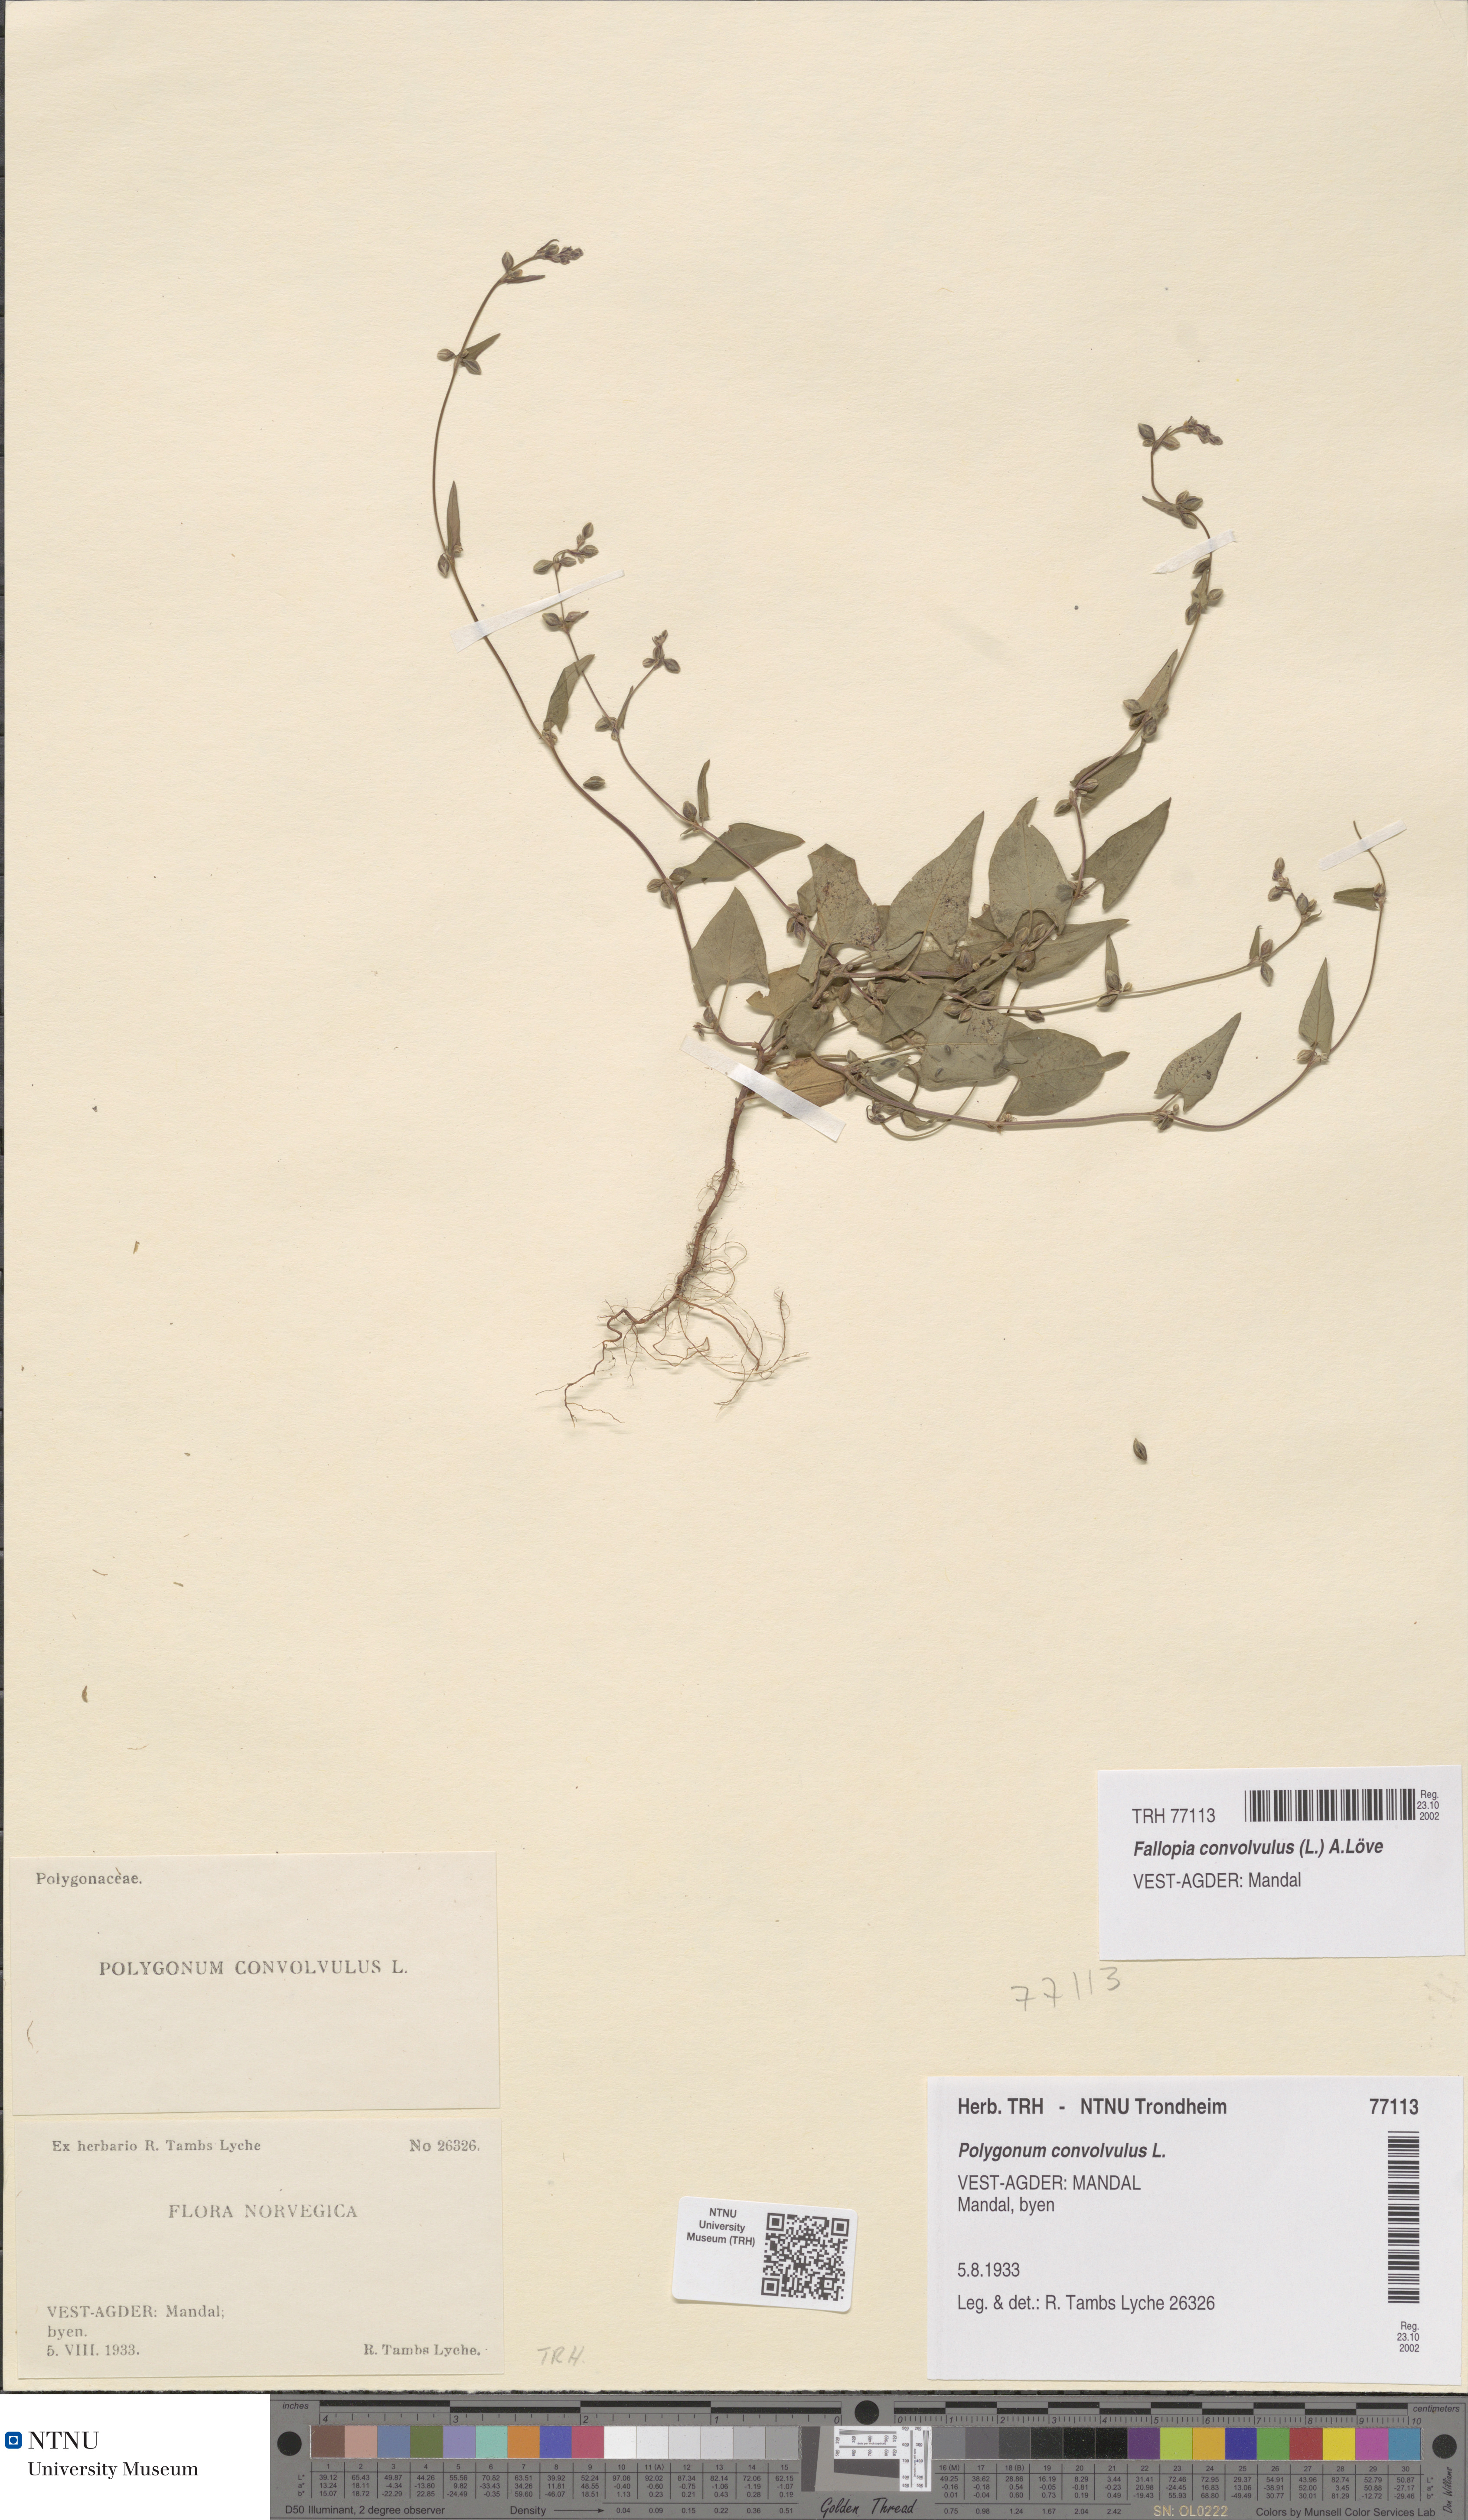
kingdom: Plantae
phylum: Tracheophyta
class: Magnoliopsida
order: Caryophyllales
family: Polygonaceae
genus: Fallopia
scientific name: Fallopia convolvulus
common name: Black bindweed
